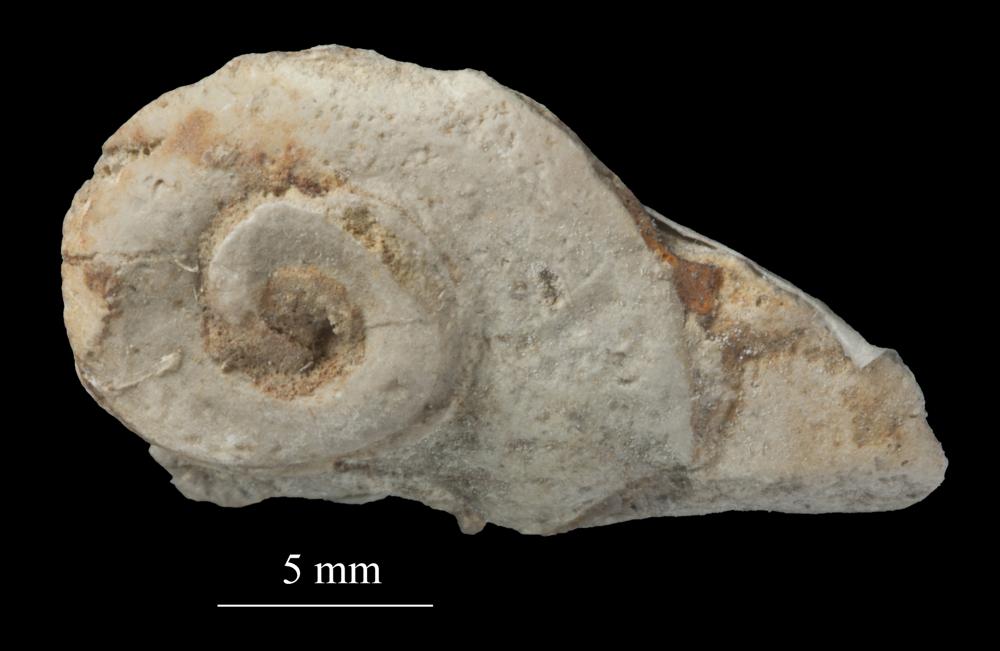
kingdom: Animalia
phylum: Mollusca
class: Gastropoda
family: Euomphalidae
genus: Euomphalus
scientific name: Euomphalus
